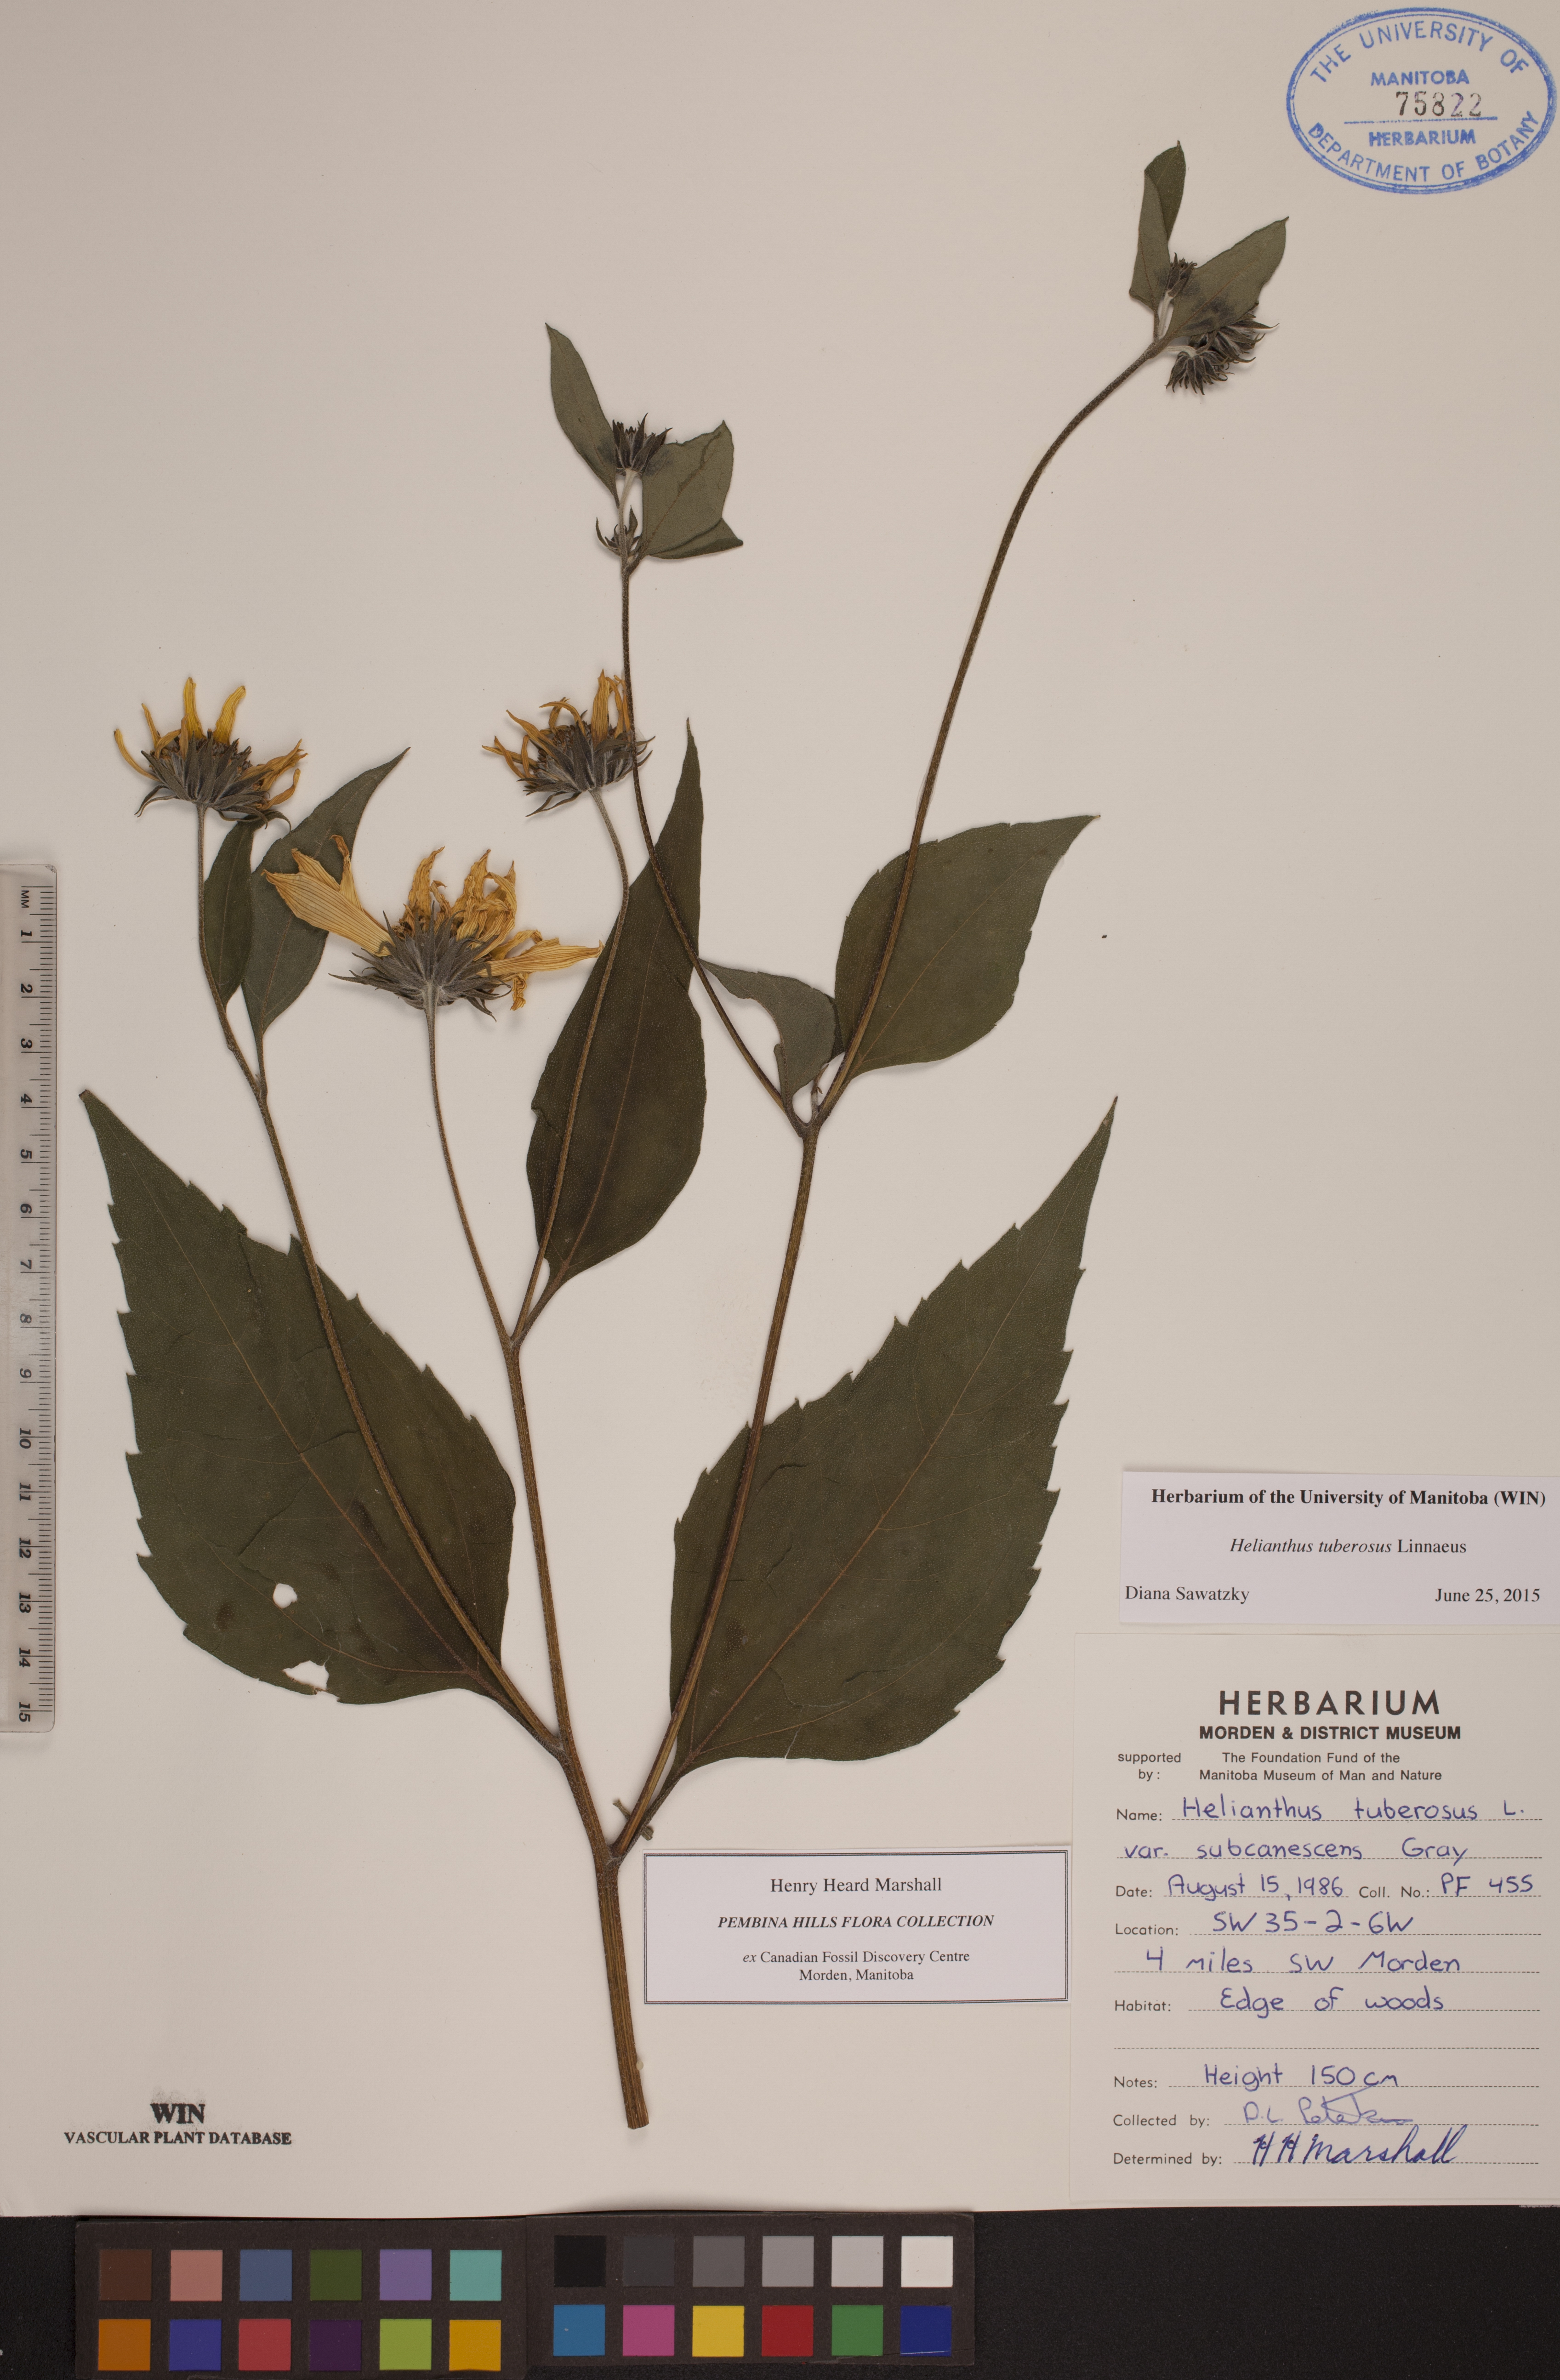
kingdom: Plantae
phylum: Tracheophyta
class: Magnoliopsida
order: Asterales
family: Asteraceae
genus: Helianthus
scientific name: Helianthus tuberosus
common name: Jerusalem artichoke
